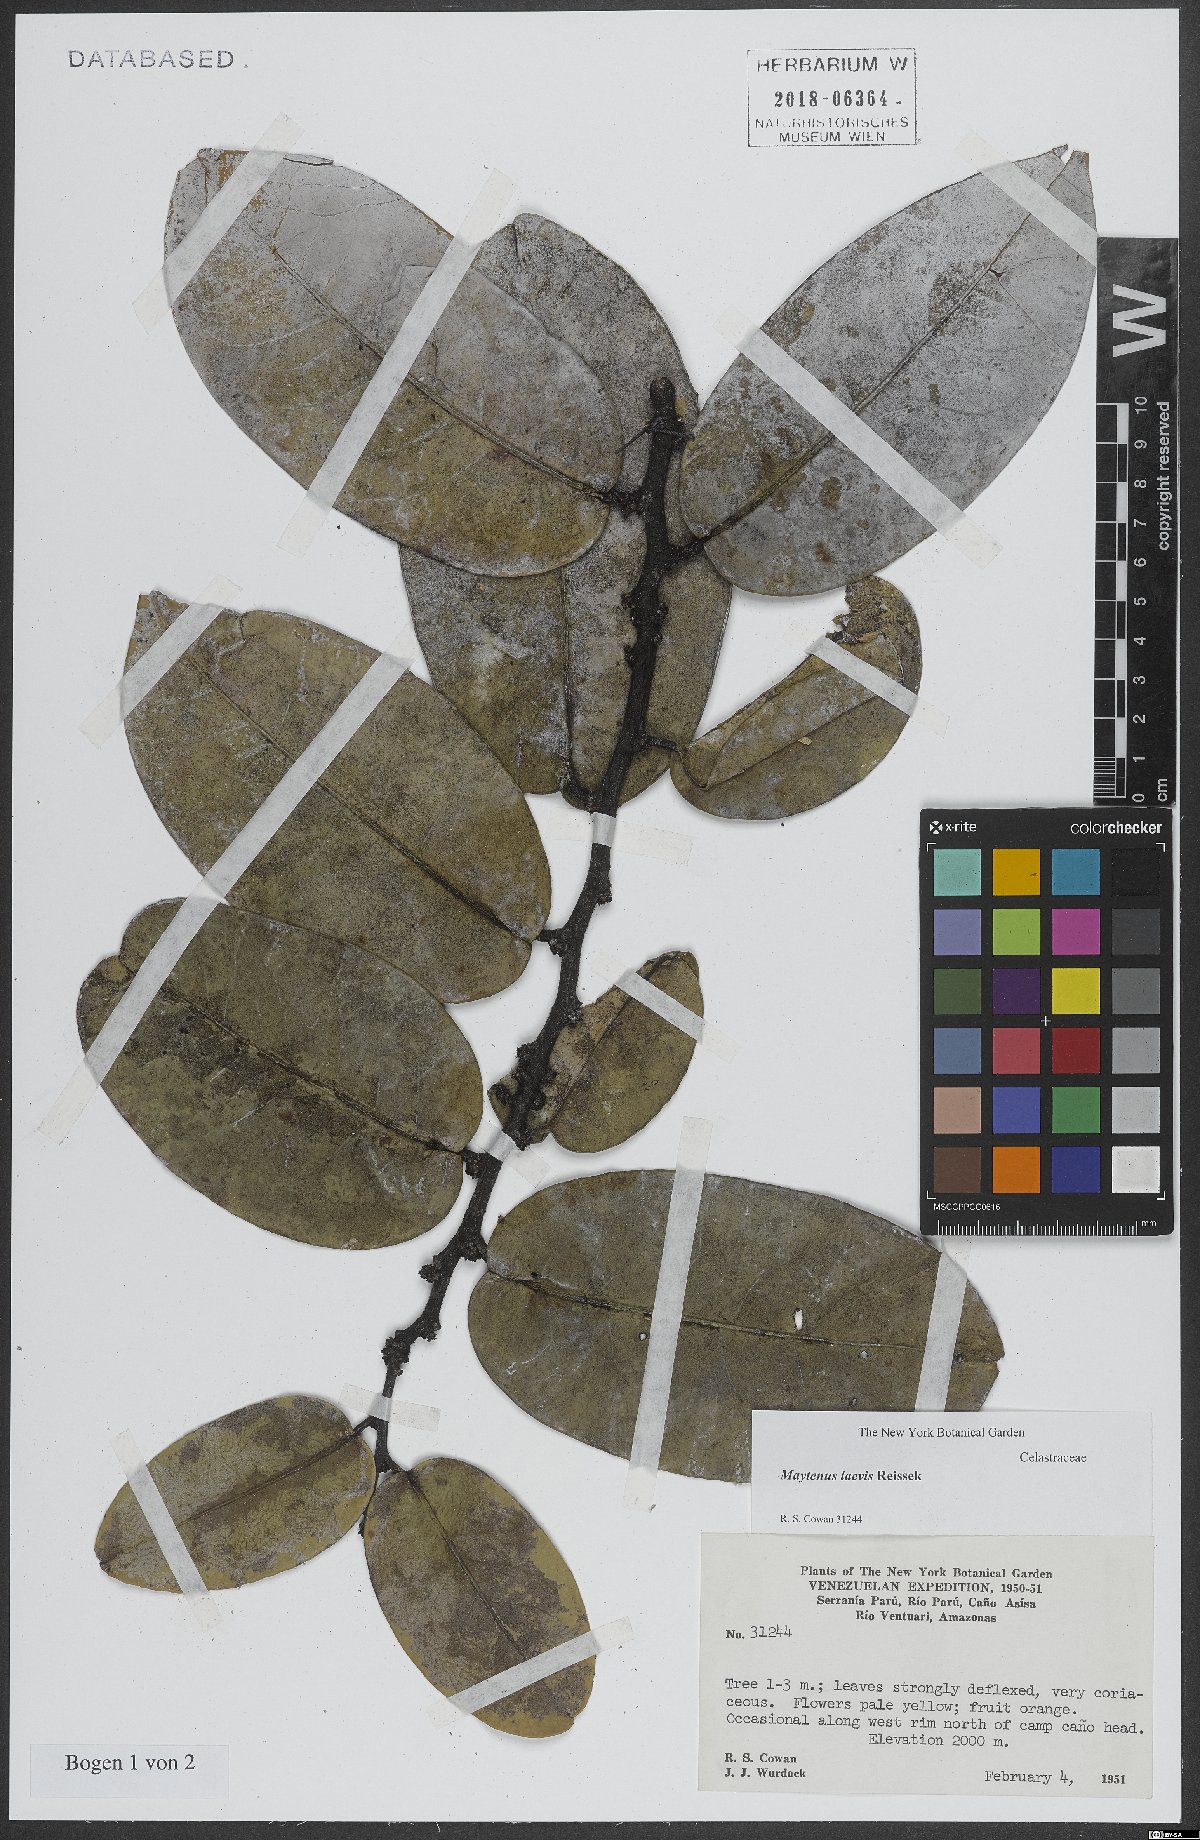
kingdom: Plantae
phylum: Tracheophyta
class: Magnoliopsida
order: Celastrales
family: Celastraceae
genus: Monteverdia
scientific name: Monteverdia laevis
